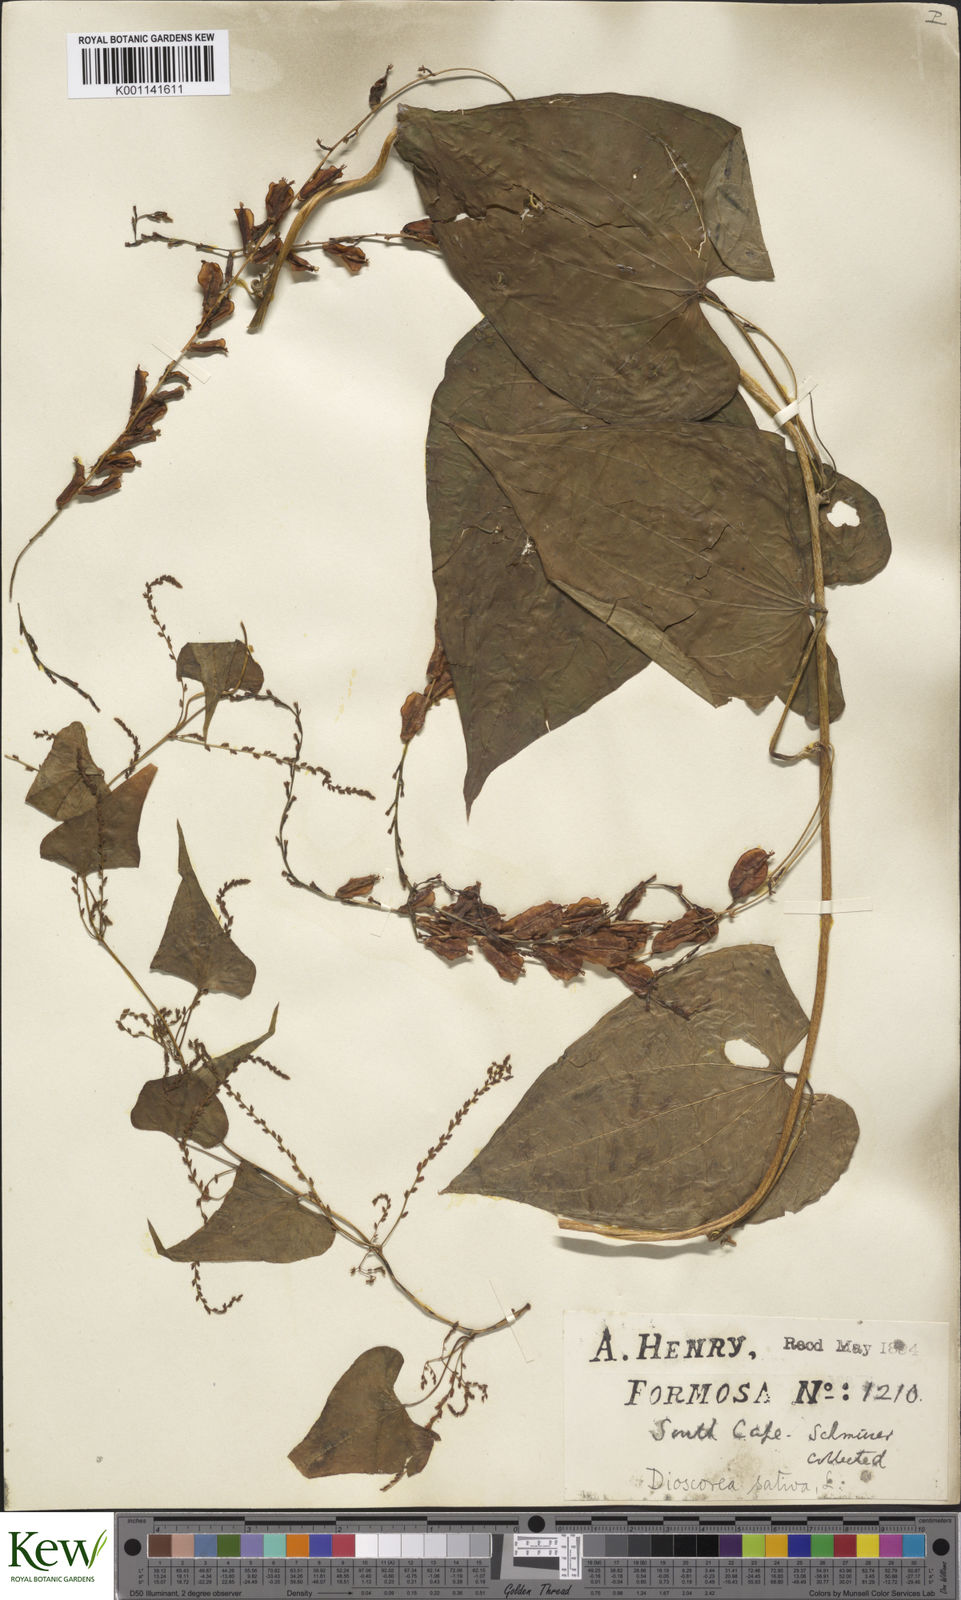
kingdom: Plantae
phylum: Tracheophyta
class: Liliopsida
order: Dioscoreales
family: Dioscoreaceae
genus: Dioscorea
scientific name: Dioscorea bulbifera
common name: Air yam
